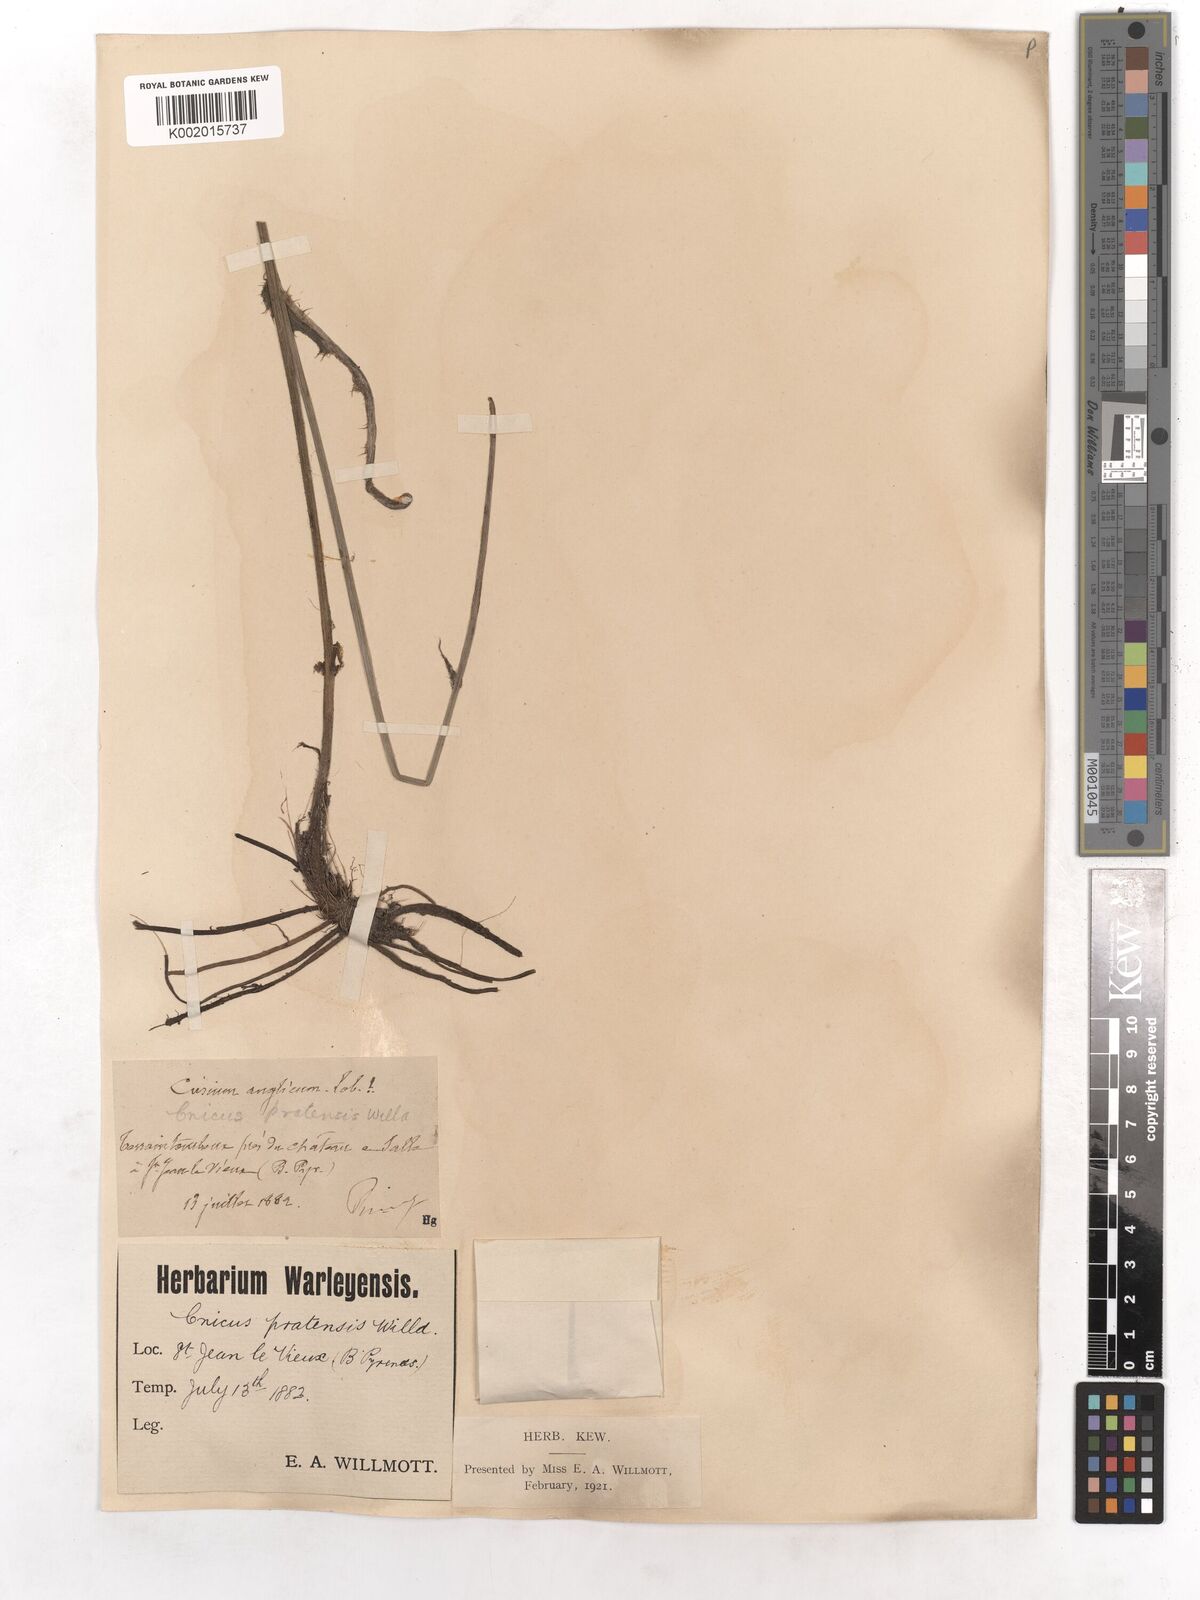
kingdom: Plantae
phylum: Tracheophyta
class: Magnoliopsida
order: Asterales
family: Asteraceae
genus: Cirsium
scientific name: Cirsium dissectum
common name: Meadow thistle
